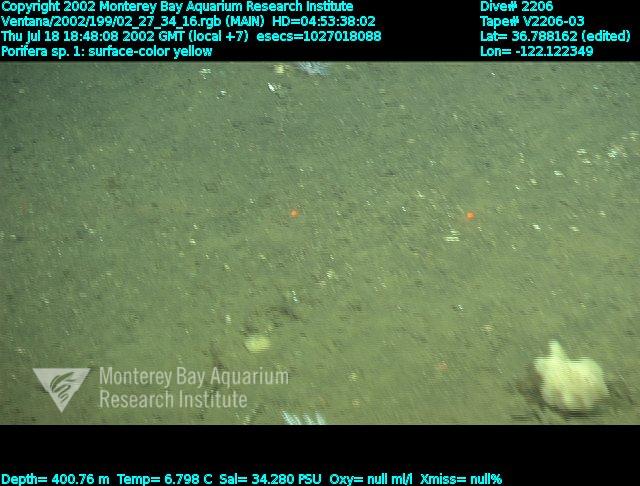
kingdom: Animalia
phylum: Porifera
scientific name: Porifera
